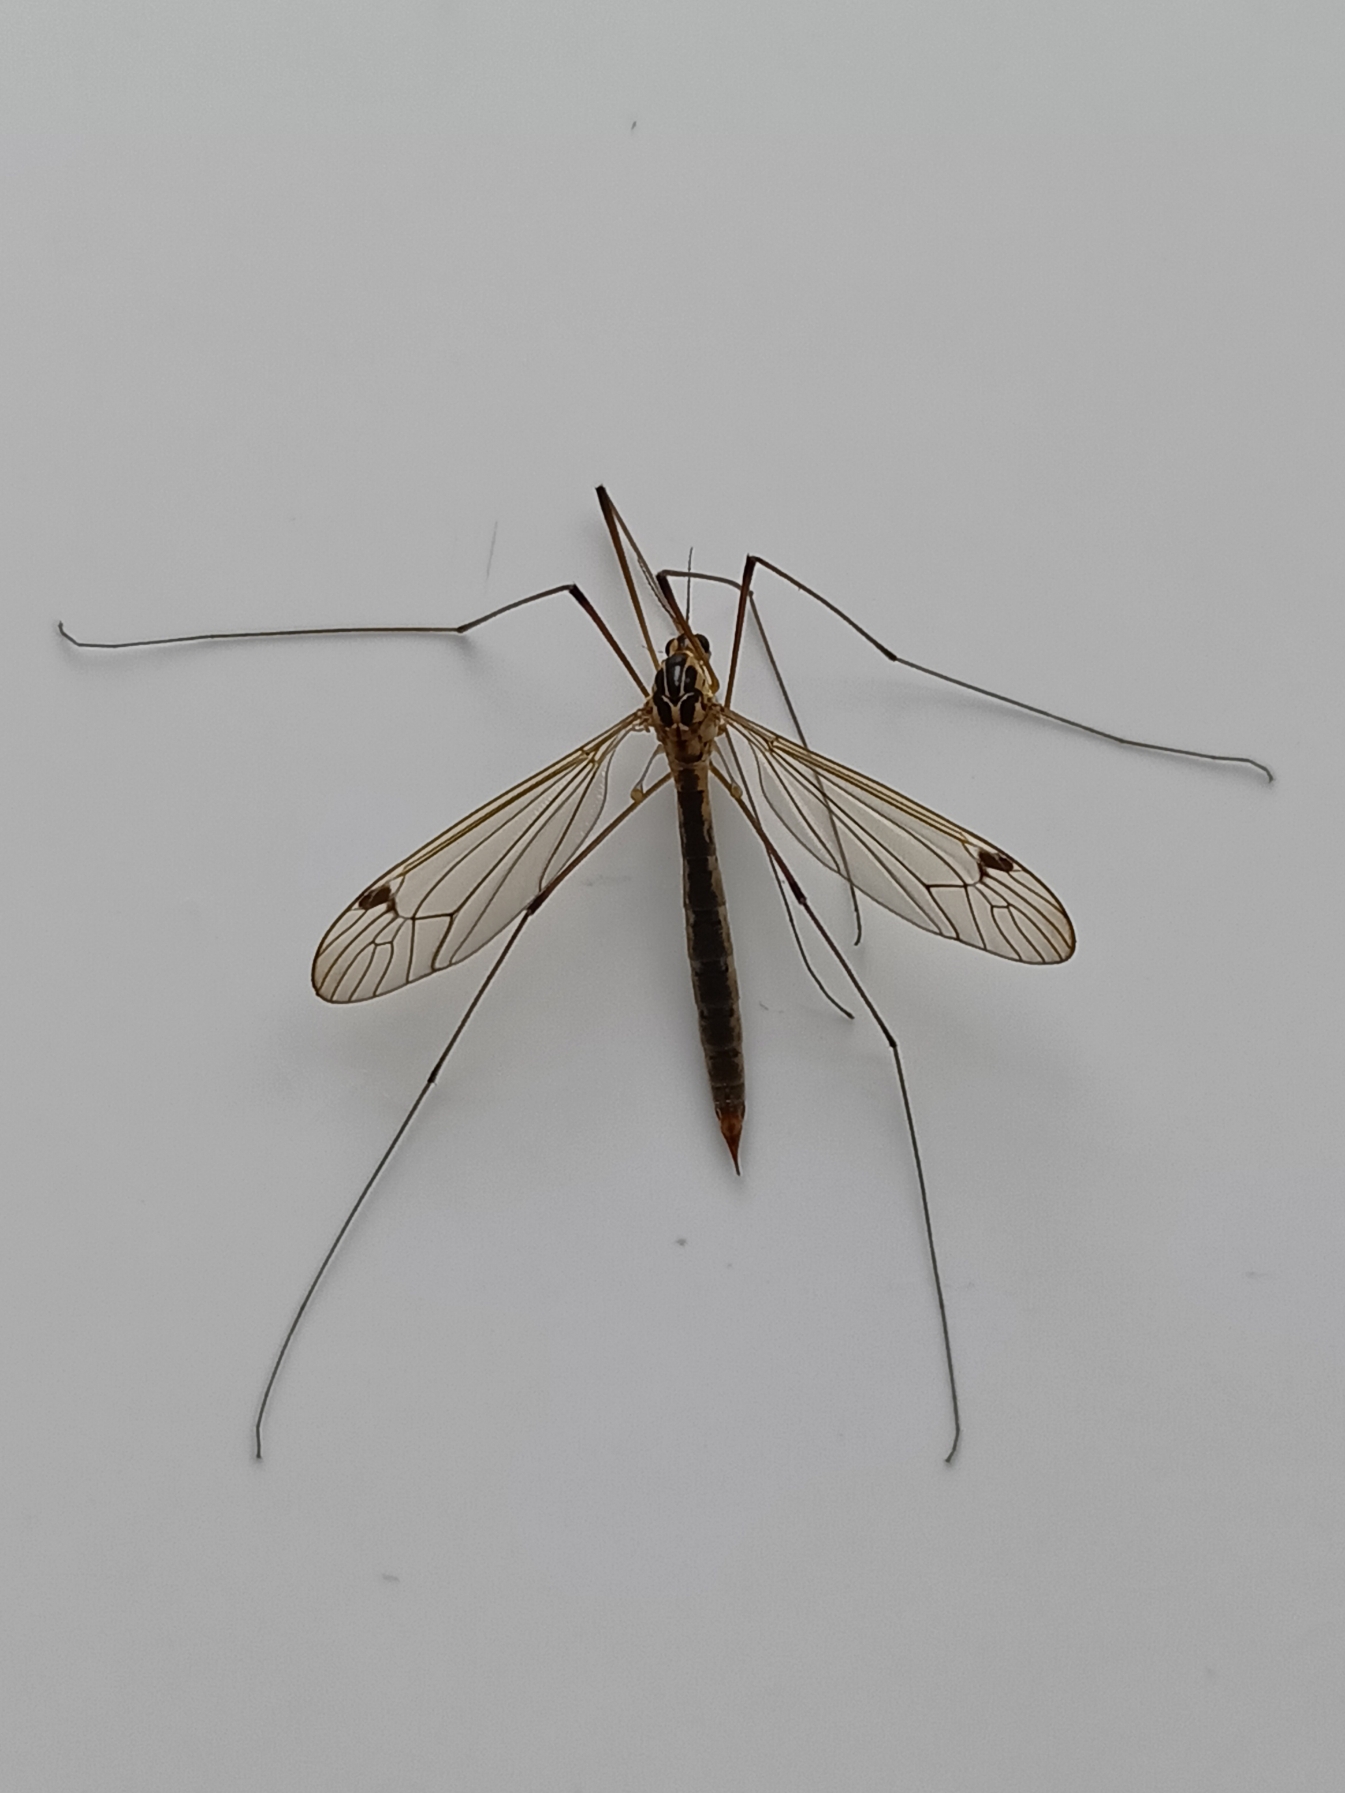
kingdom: Animalia
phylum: Arthropoda
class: Insecta
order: Diptera
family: Tipulidae
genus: Nephrotoma
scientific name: Nephrotoma lunulicornis
